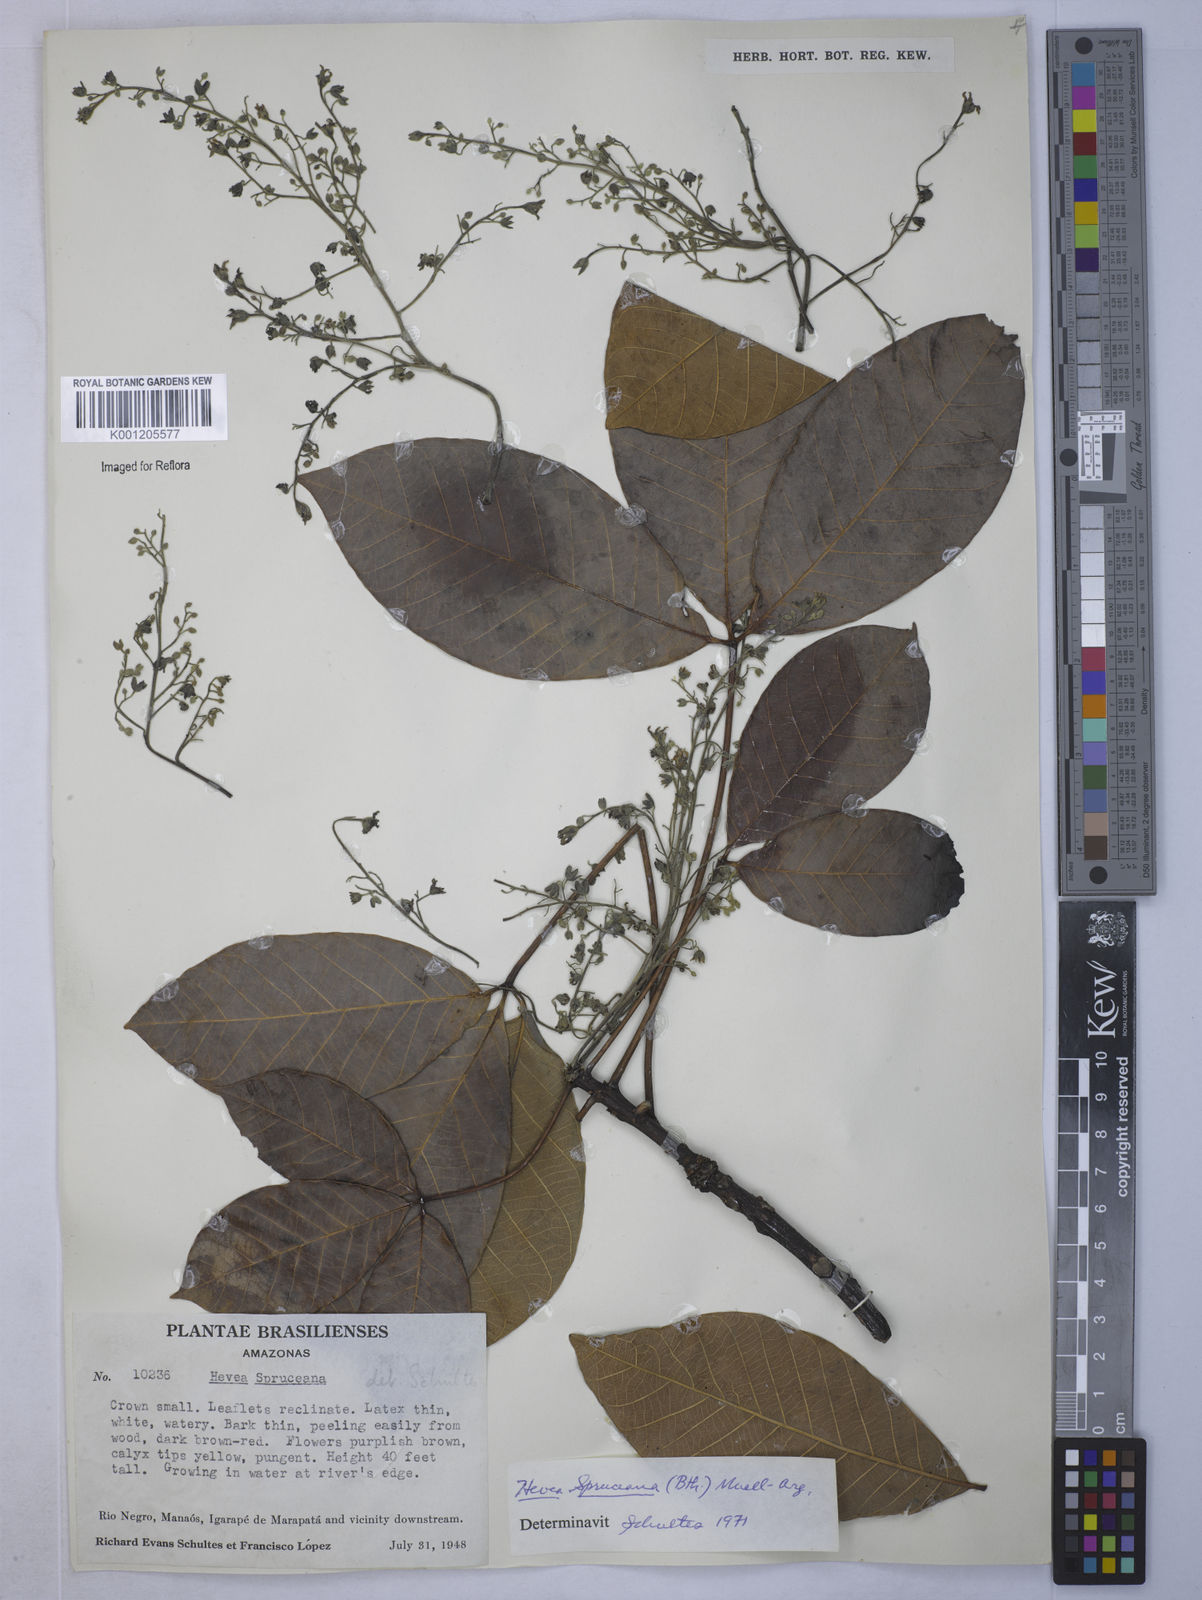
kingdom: Plantae
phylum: Tracheophyta
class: Magnoliopsida
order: Malpighiales
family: Euphorbiaceae
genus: Hevea
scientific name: Hevea
